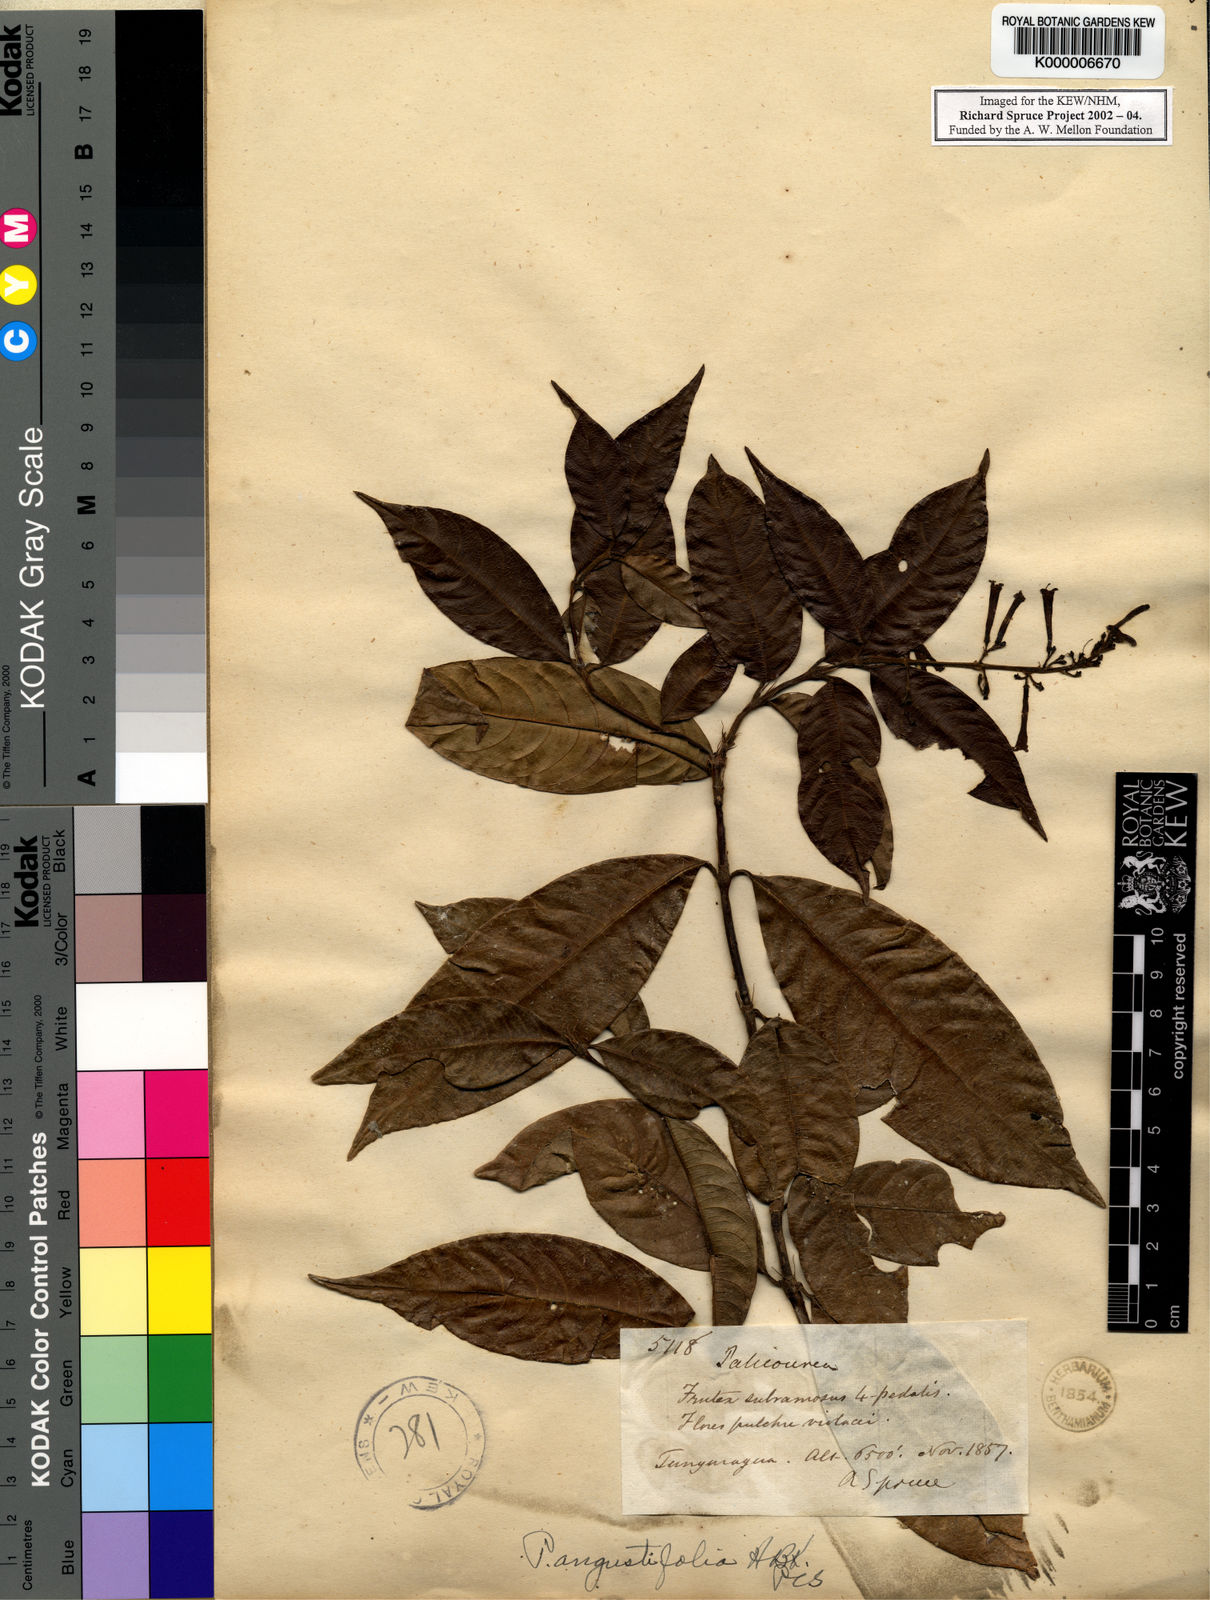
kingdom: Plantae
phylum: Tracheophyta
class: Magnoliopsida
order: Gentianales
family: Rubiaceae
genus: Palicourea
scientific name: Palicourea angustifolia
